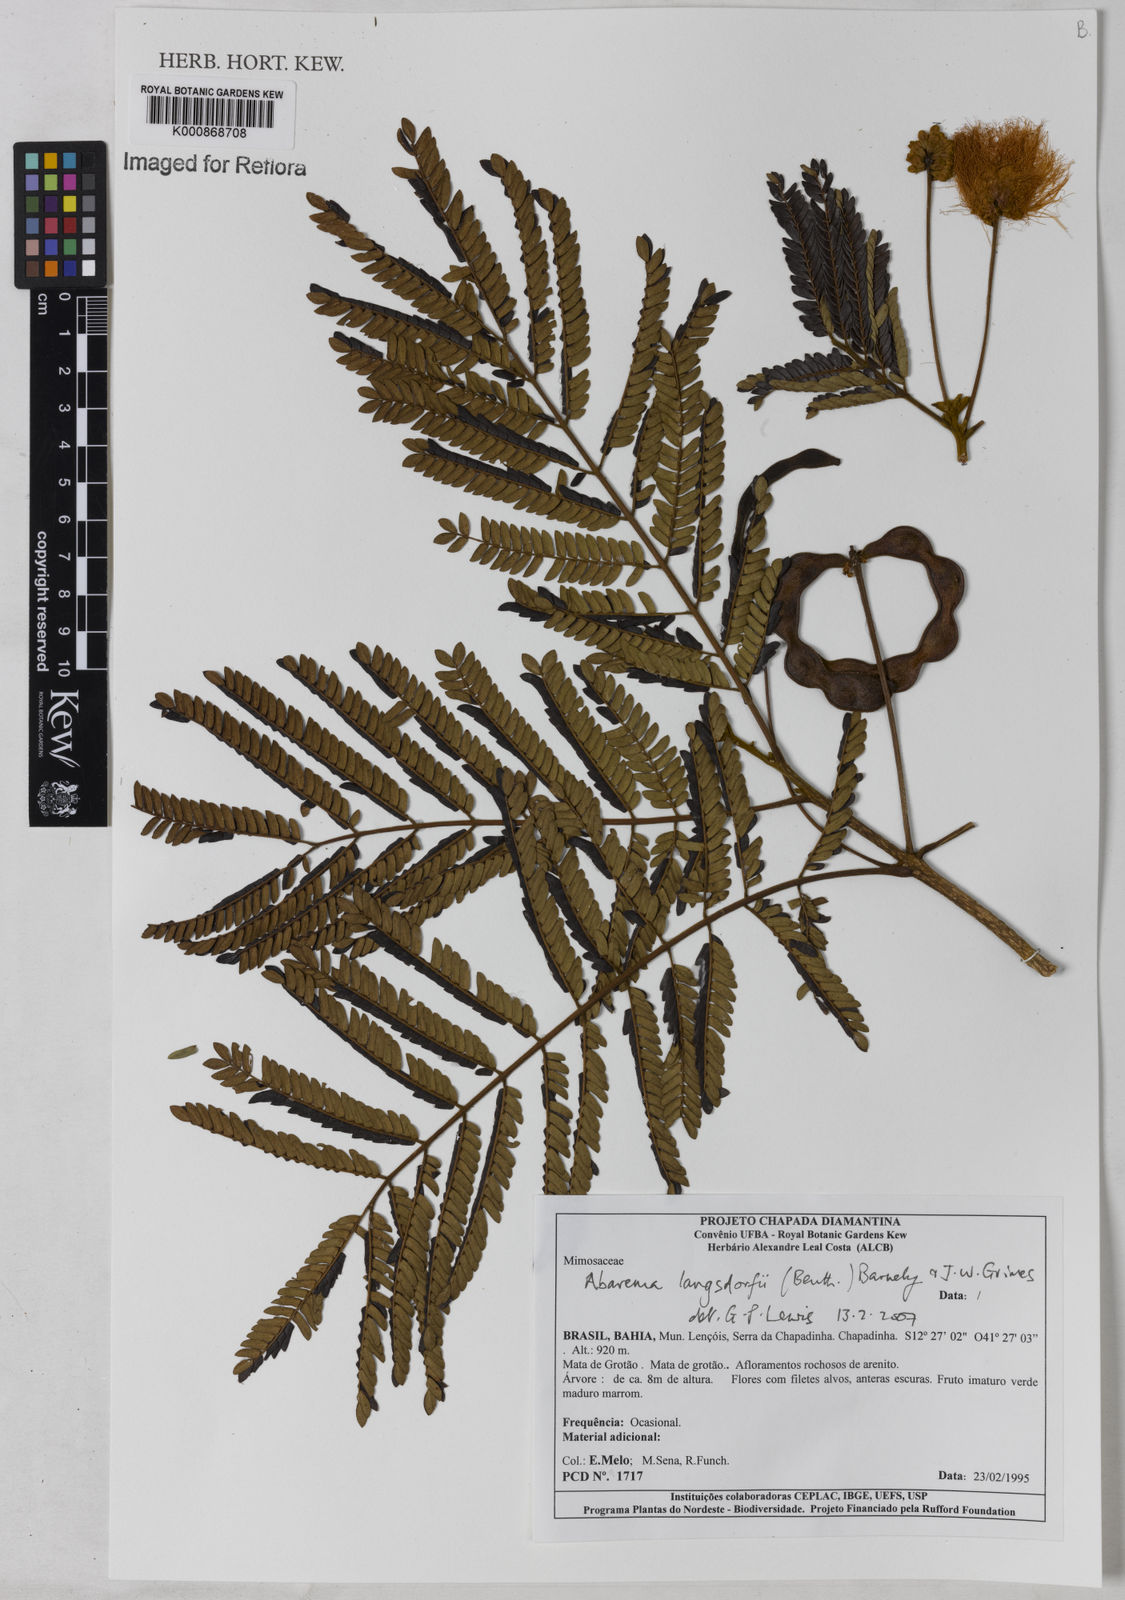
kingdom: Plantae
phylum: Tracheophyta
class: Magnoliopsida
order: Fabales
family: Fabaceae
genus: Jupunba
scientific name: Jupunba langsdorffii
